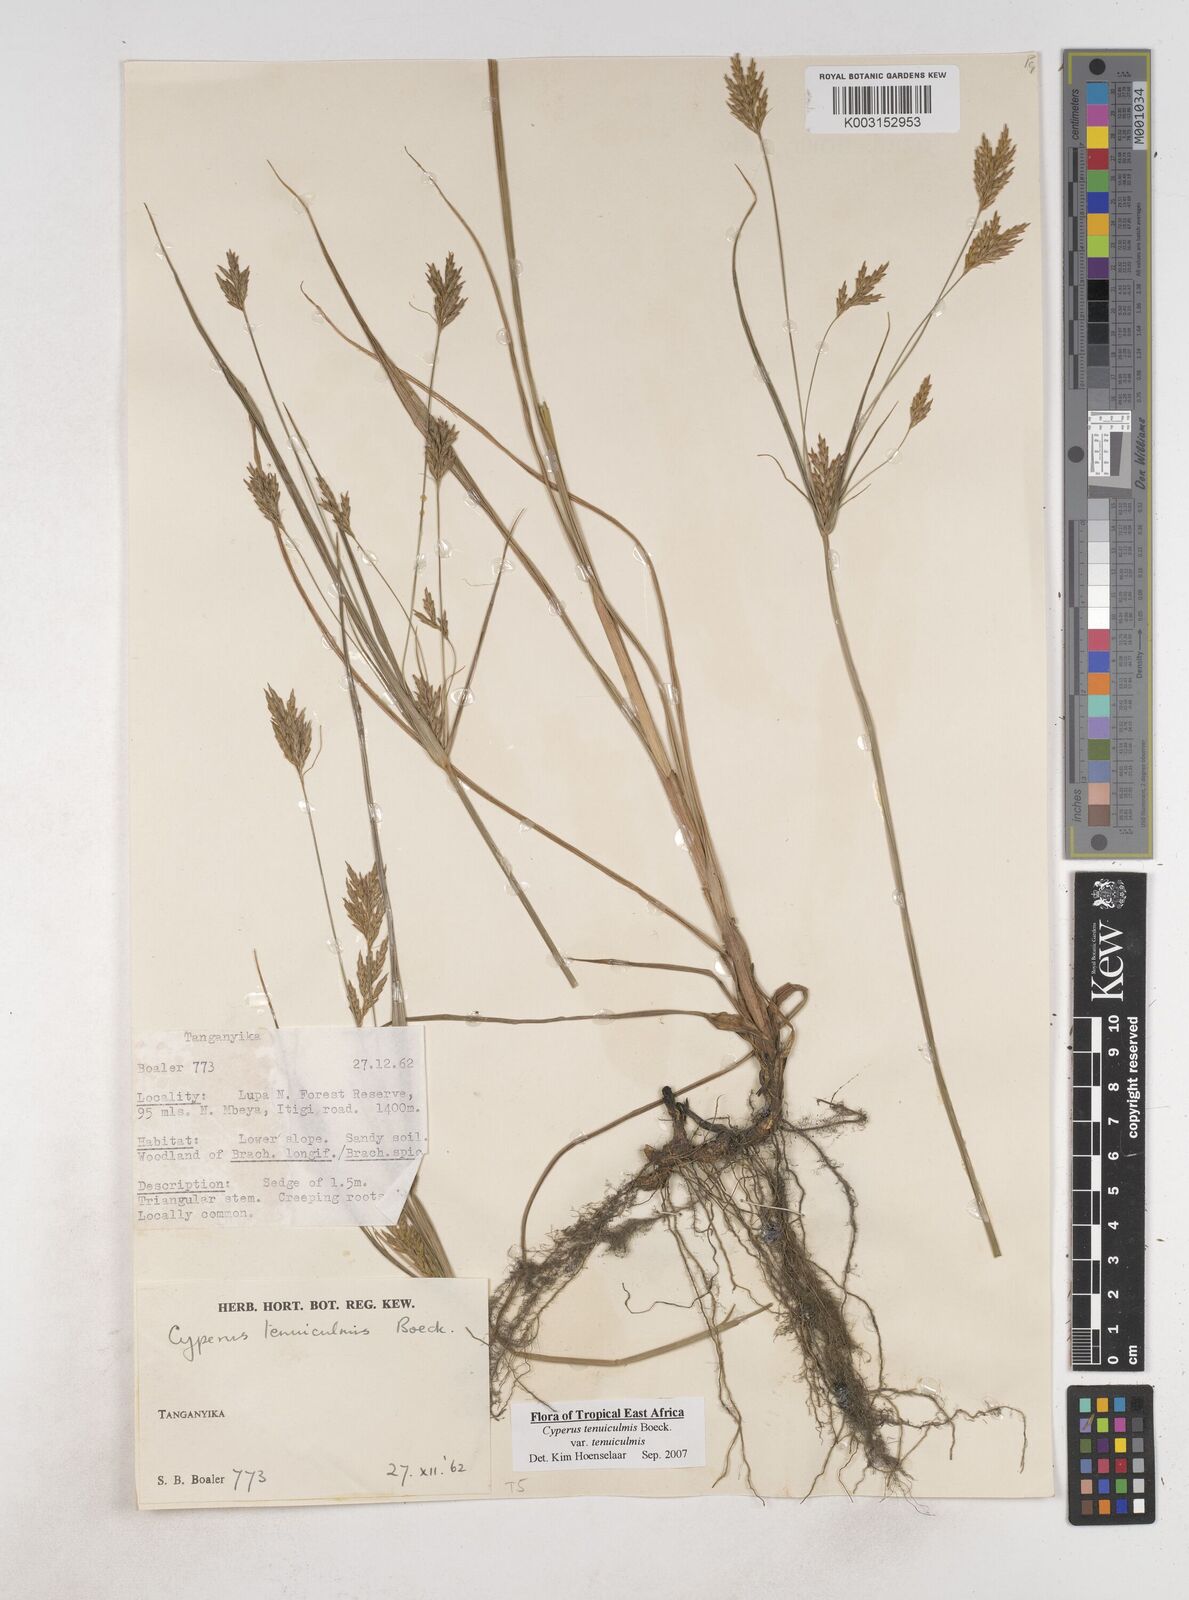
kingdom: Plantae
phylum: Tracheophyta
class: Liliopsida
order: Poales
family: Cyperaceae
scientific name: Cyperaceae
